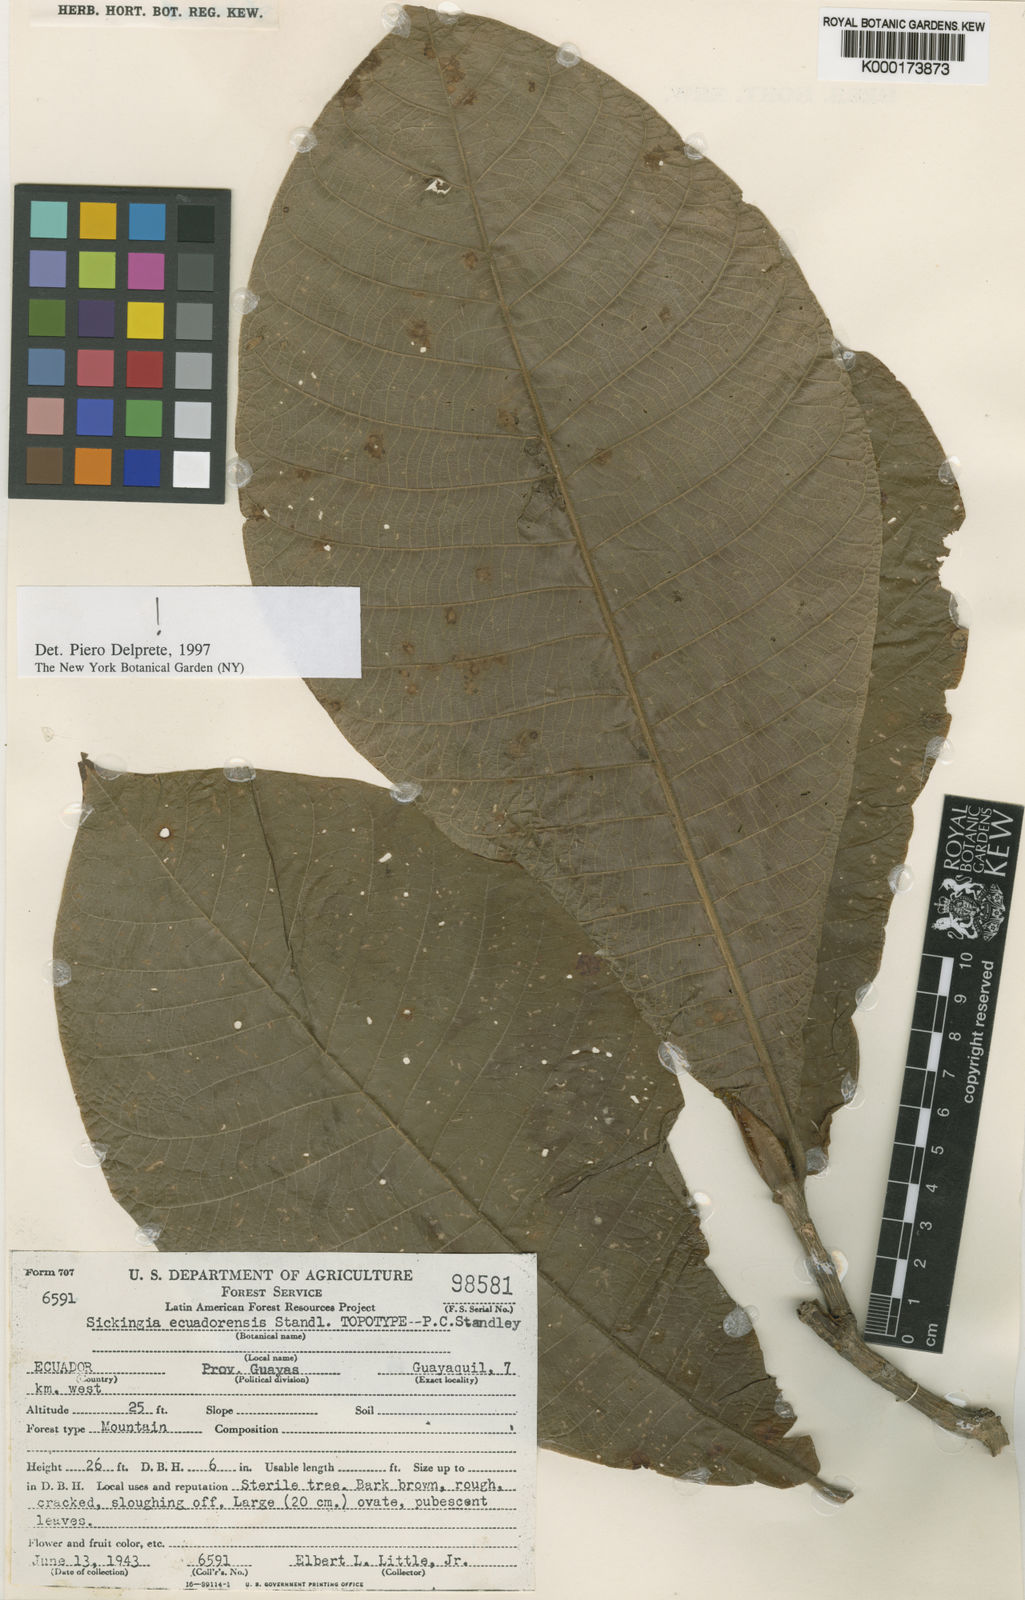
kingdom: Plantae
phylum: Tracheophyta
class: Magnoliopsida
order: Gentianales
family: Rubiaceae
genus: Simira
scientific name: Simira ecuadorensis
